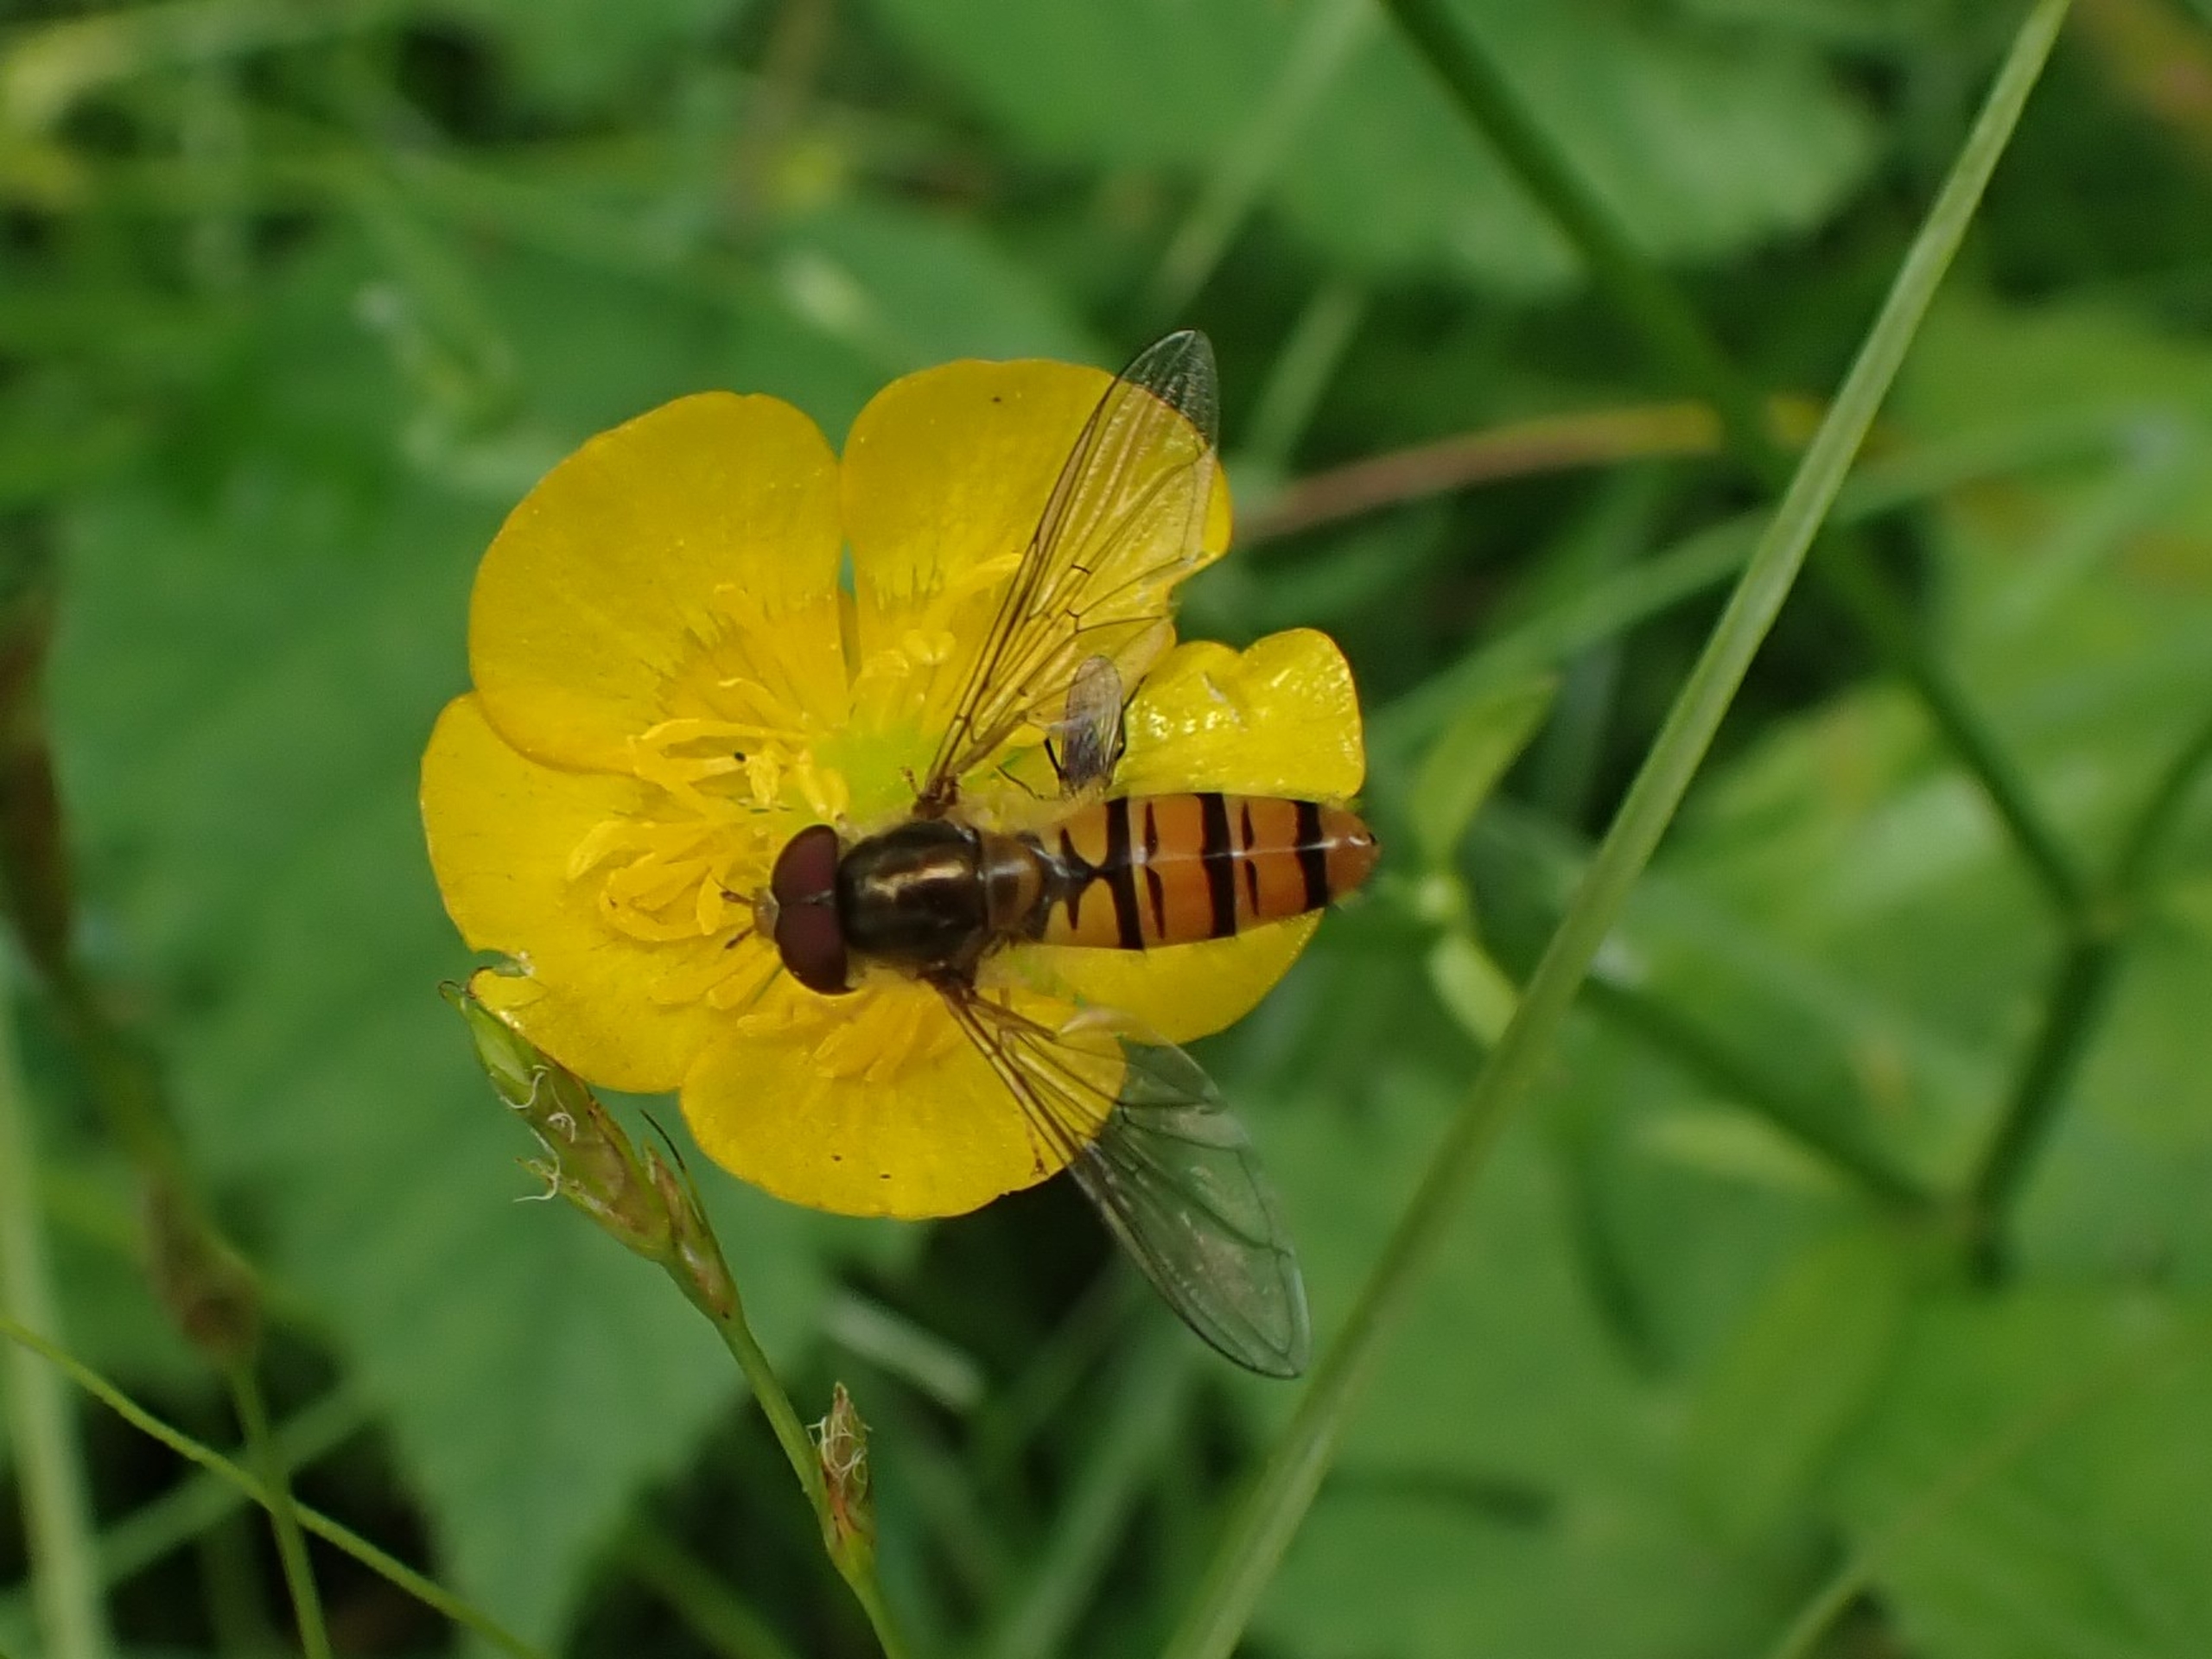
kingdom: Animalia
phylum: Arthropoda
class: Insecta
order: Diptera
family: Syrphidae
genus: Episyrphus
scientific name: Episyrphus balteatus
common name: Dobbeltbåndet svirreflue
